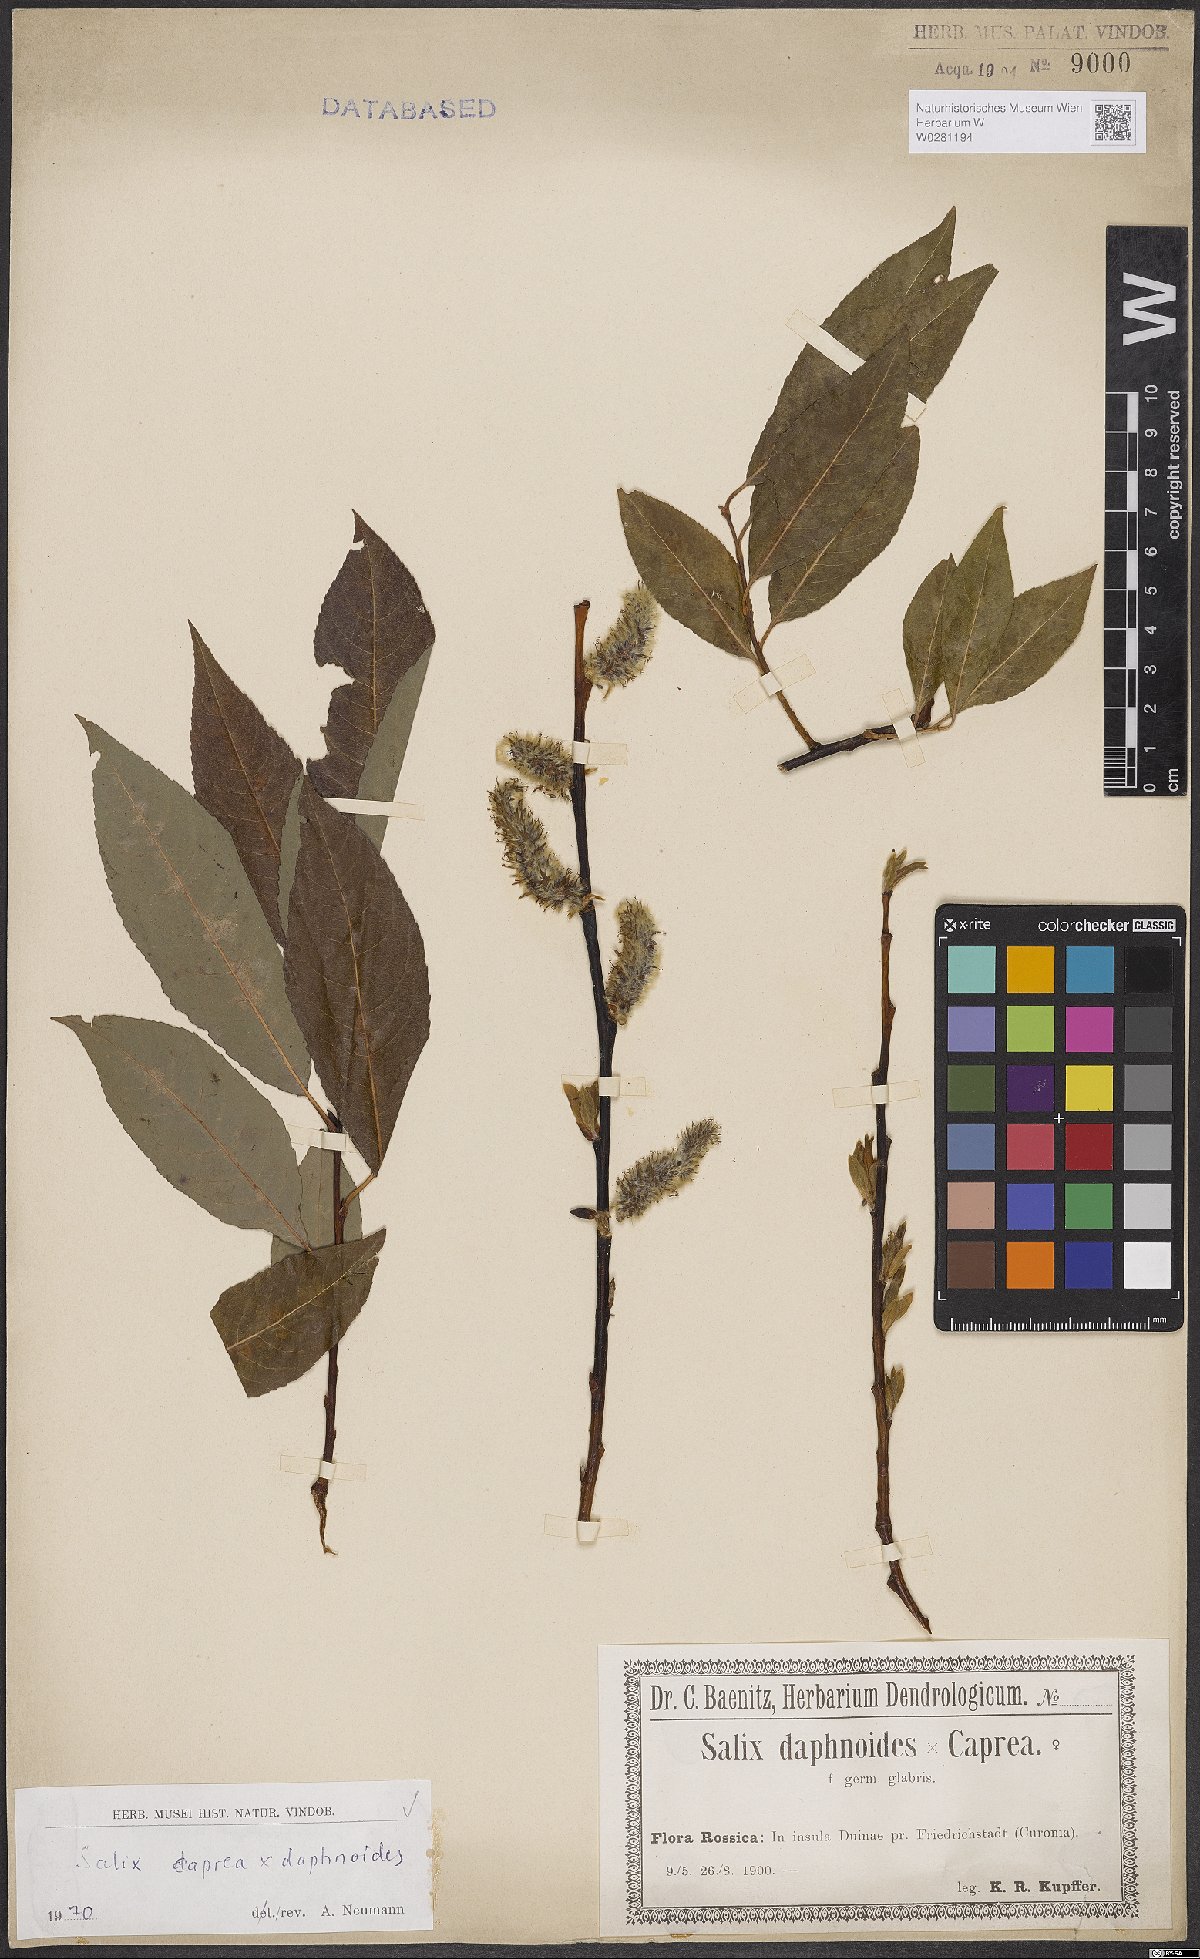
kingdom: Plantae
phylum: Tracheophyta
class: Magnoliopsida
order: Malpighiales
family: Salicaceae
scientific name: Salicaceae
